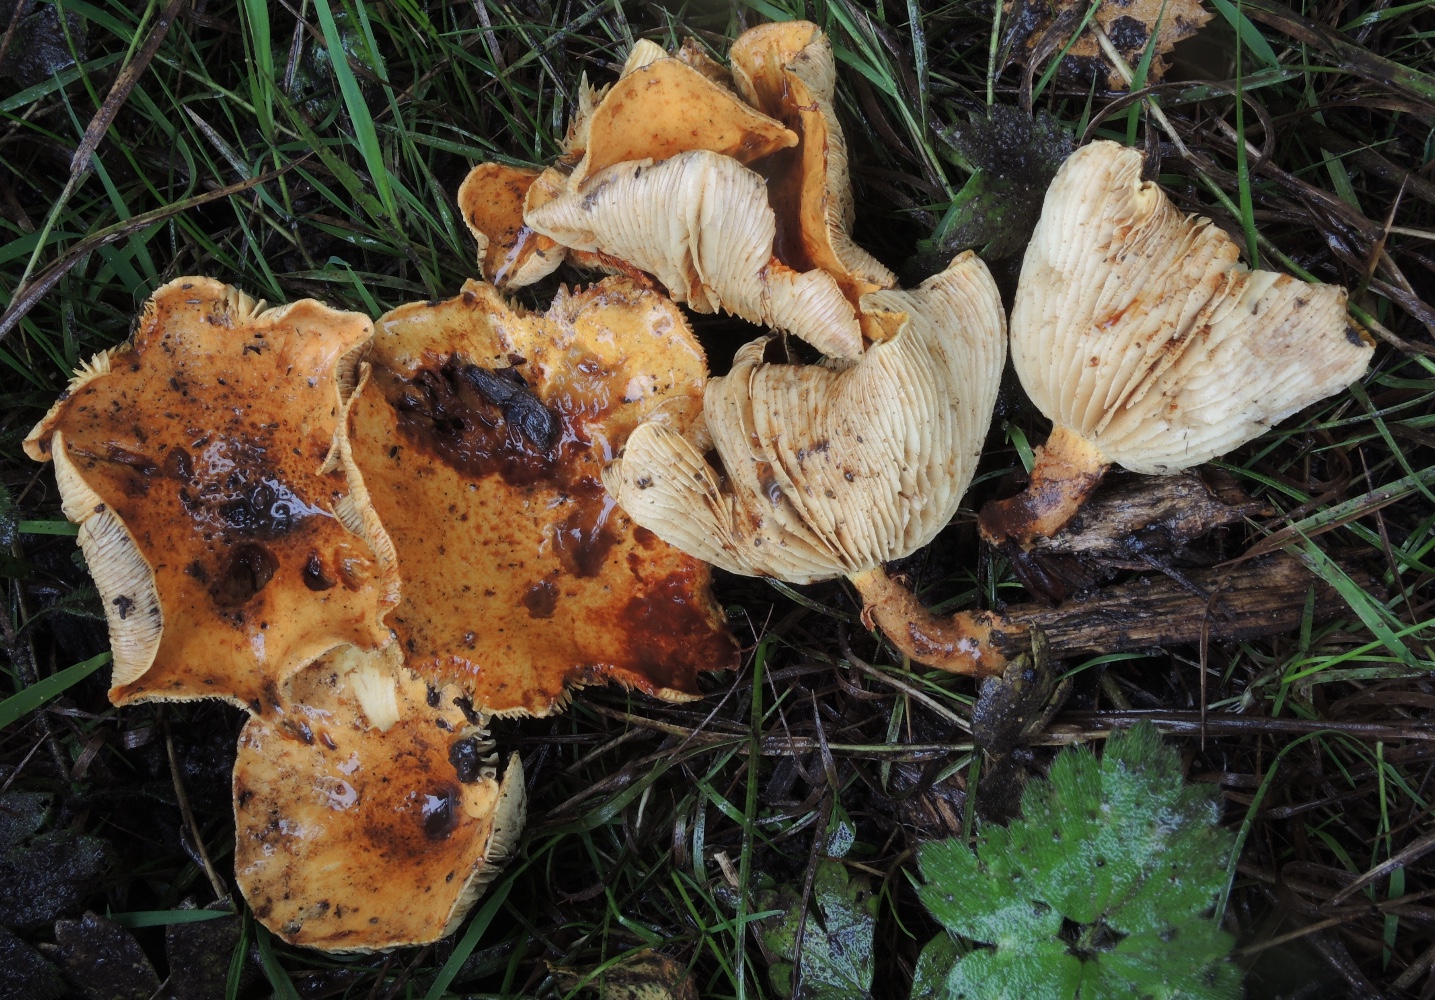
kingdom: Fungi
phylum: Basidiomycota
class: Agaricomycetes
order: Agaricales
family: Strophariaceae
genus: Pholiota
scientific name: Pholiota lucifera
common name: brandgul skælhat
